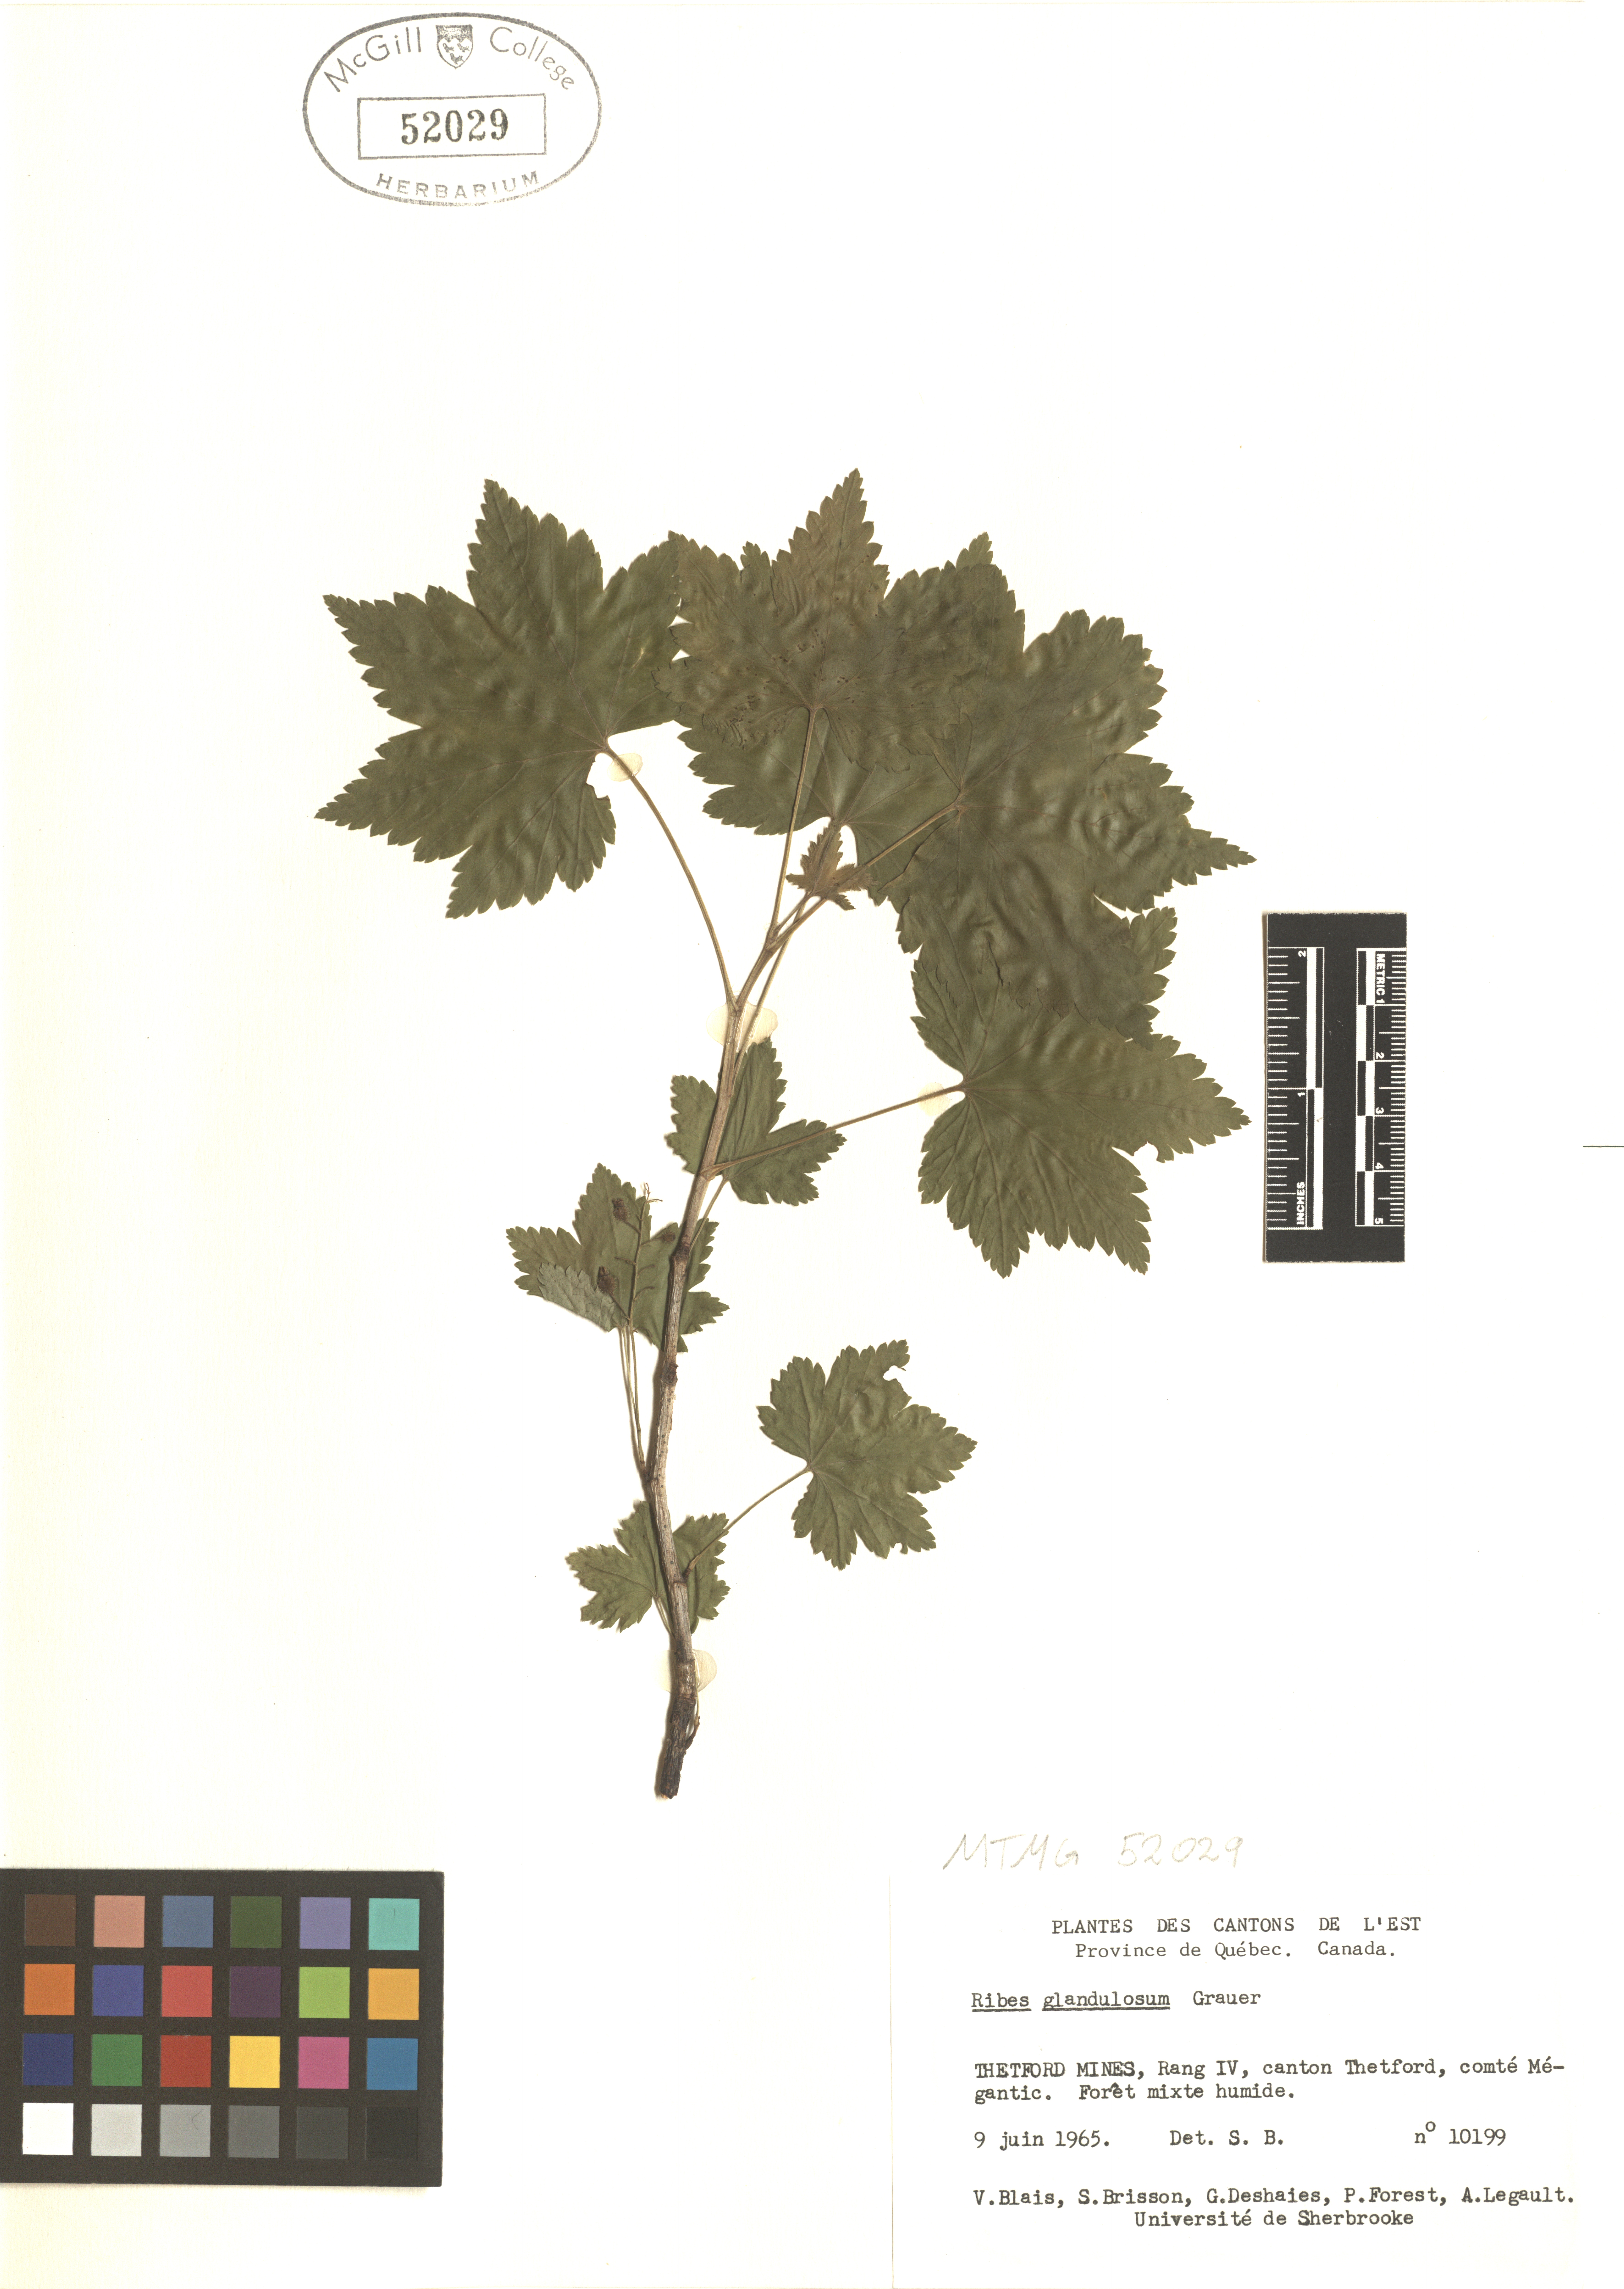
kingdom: Plantae
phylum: Tracheophyta
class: Magnoliopsida
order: Saxifragales
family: Grossulariaceae
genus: Ribes
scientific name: Ribes glandulosum
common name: Skunk currant
